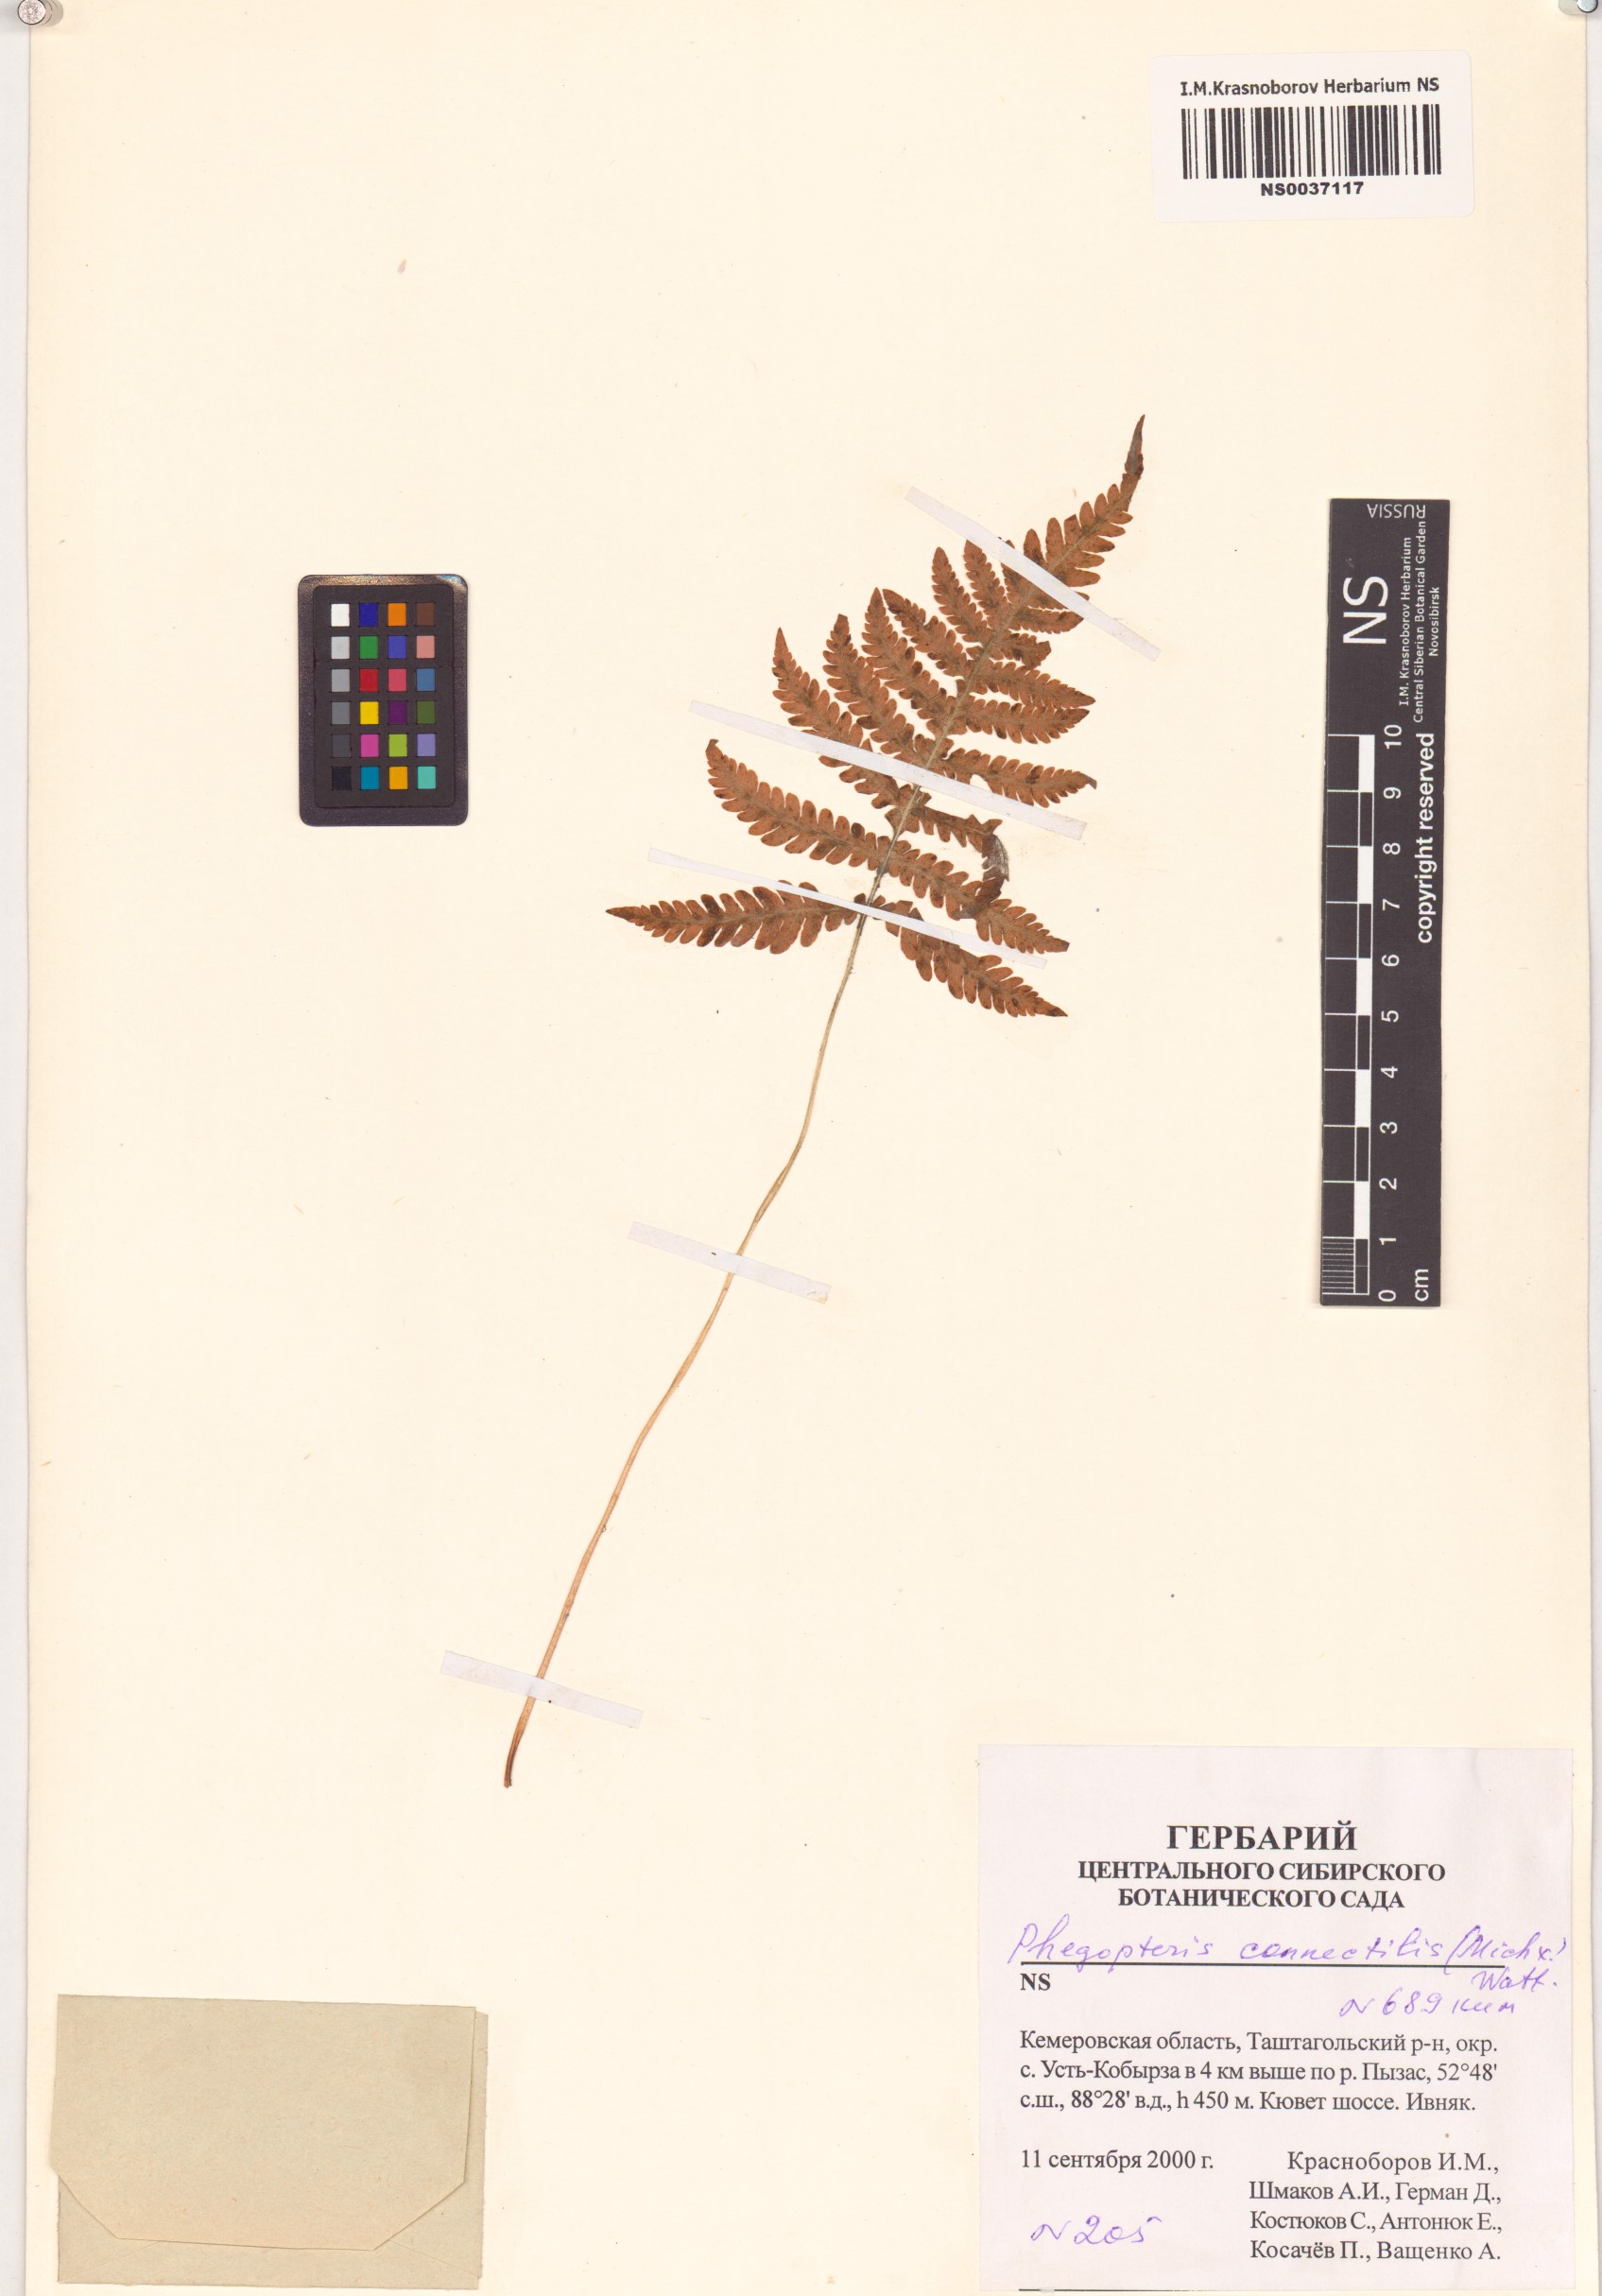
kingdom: Plantae
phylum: Tracheophyta
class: Polypodiopsida
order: Polypodiales
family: Thelypteridaceae
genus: Phegopteris
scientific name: Phegopteris connectilis
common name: Beech fern
